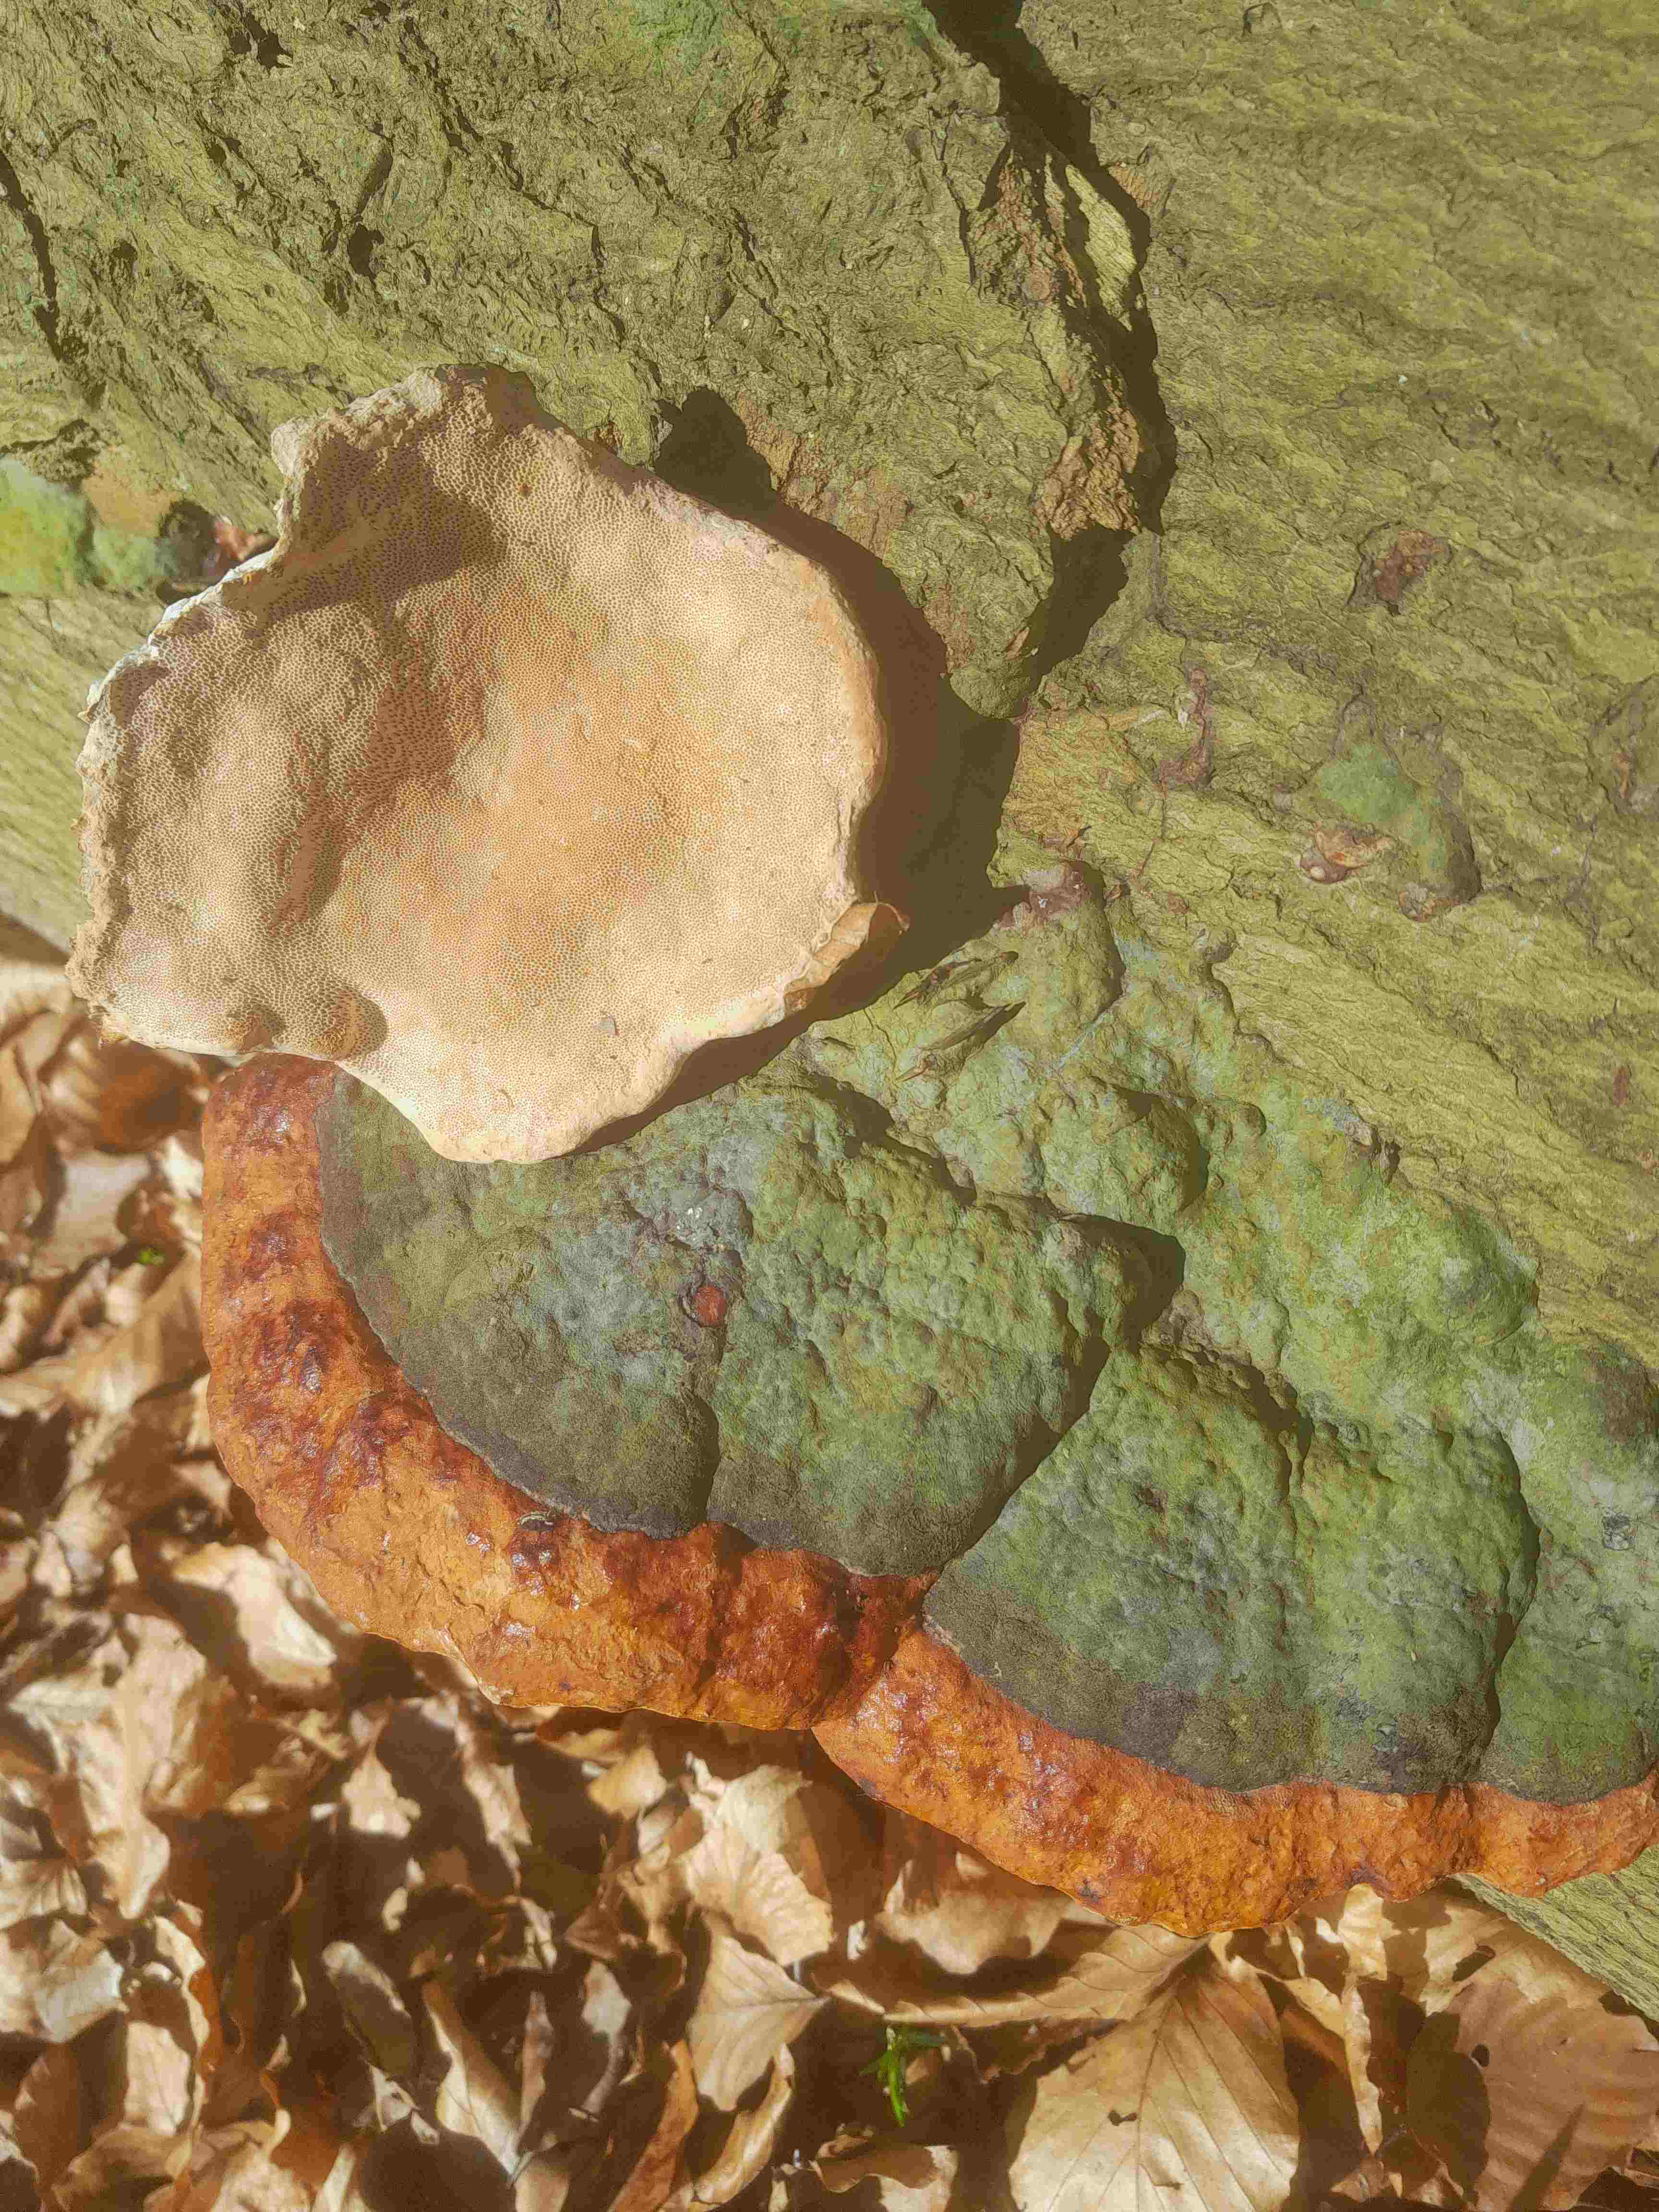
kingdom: Fungi
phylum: Basidiomycota
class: Agaricomycetes
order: Polyporales
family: Fomitopsidaceae
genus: Fomitopsis
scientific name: Fomitopsis pinicola
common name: randbæltet hovporesvamp
